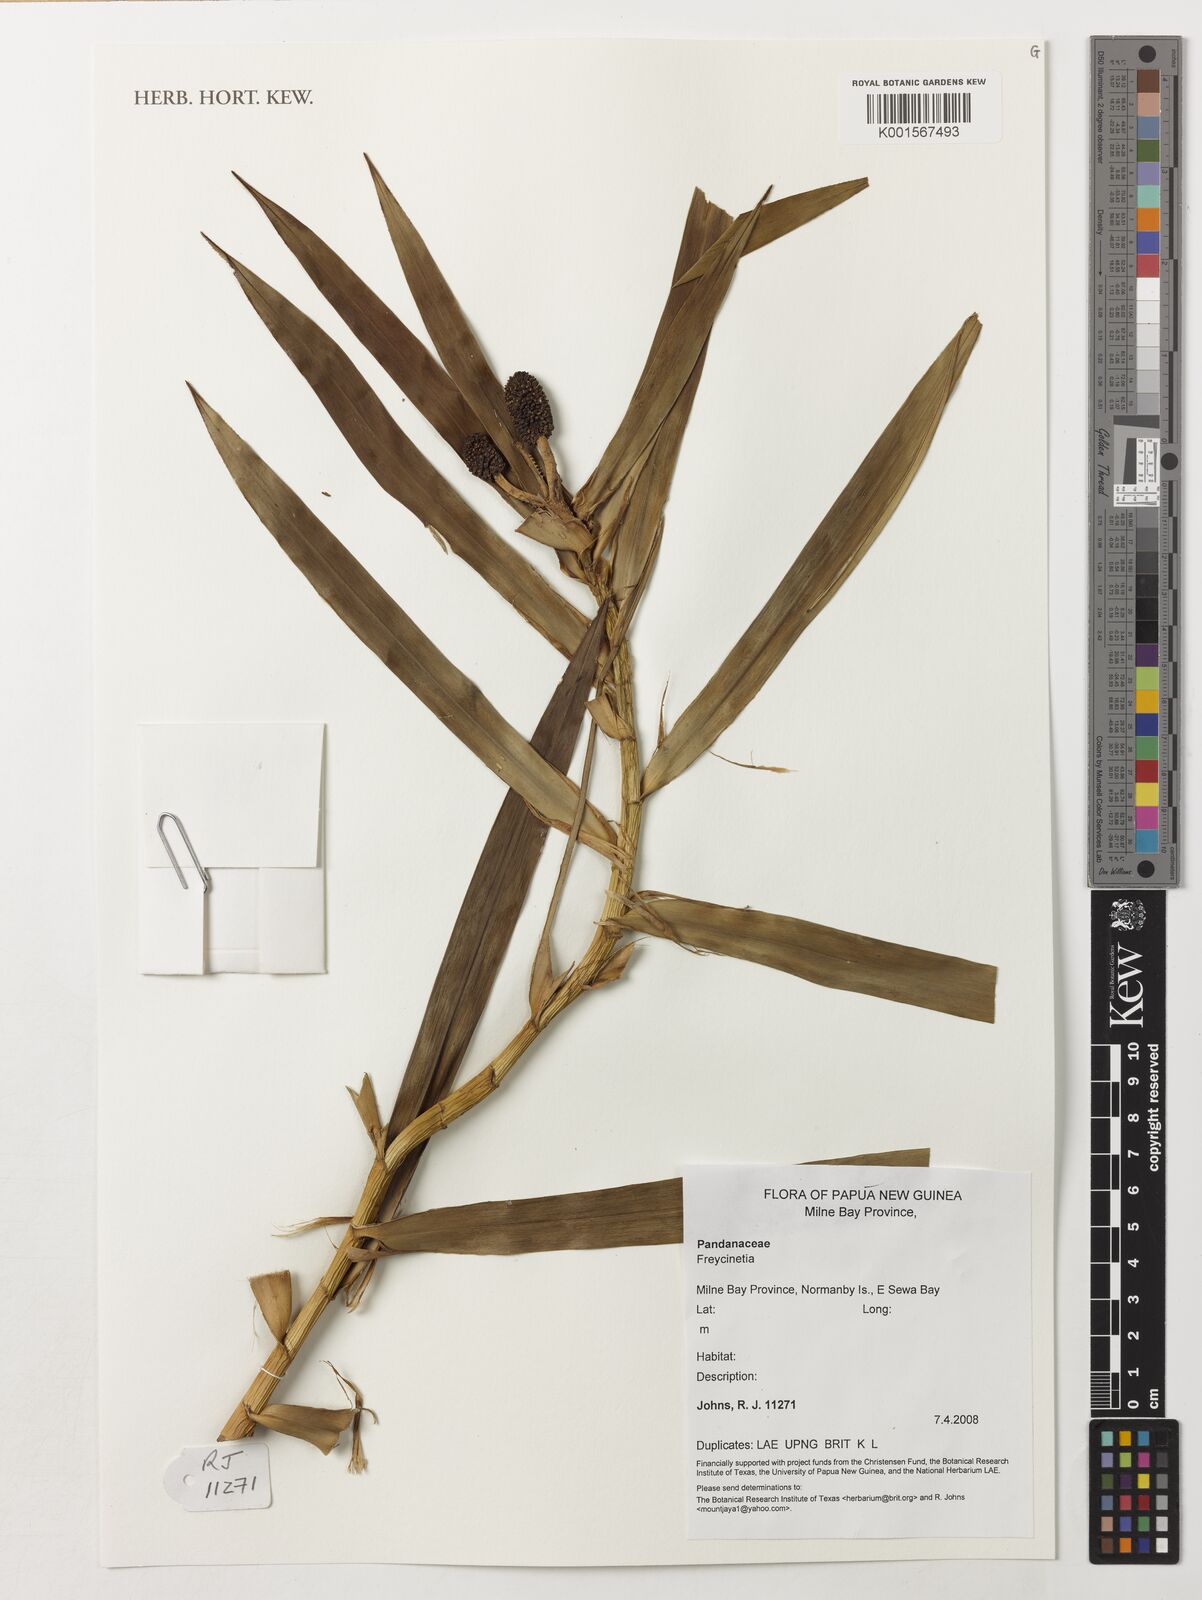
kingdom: Plantae
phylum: Tracheophyta
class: Liliopsida
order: Pandanales
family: Pandanaceae
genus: Freycinetia
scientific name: Freycinetia
